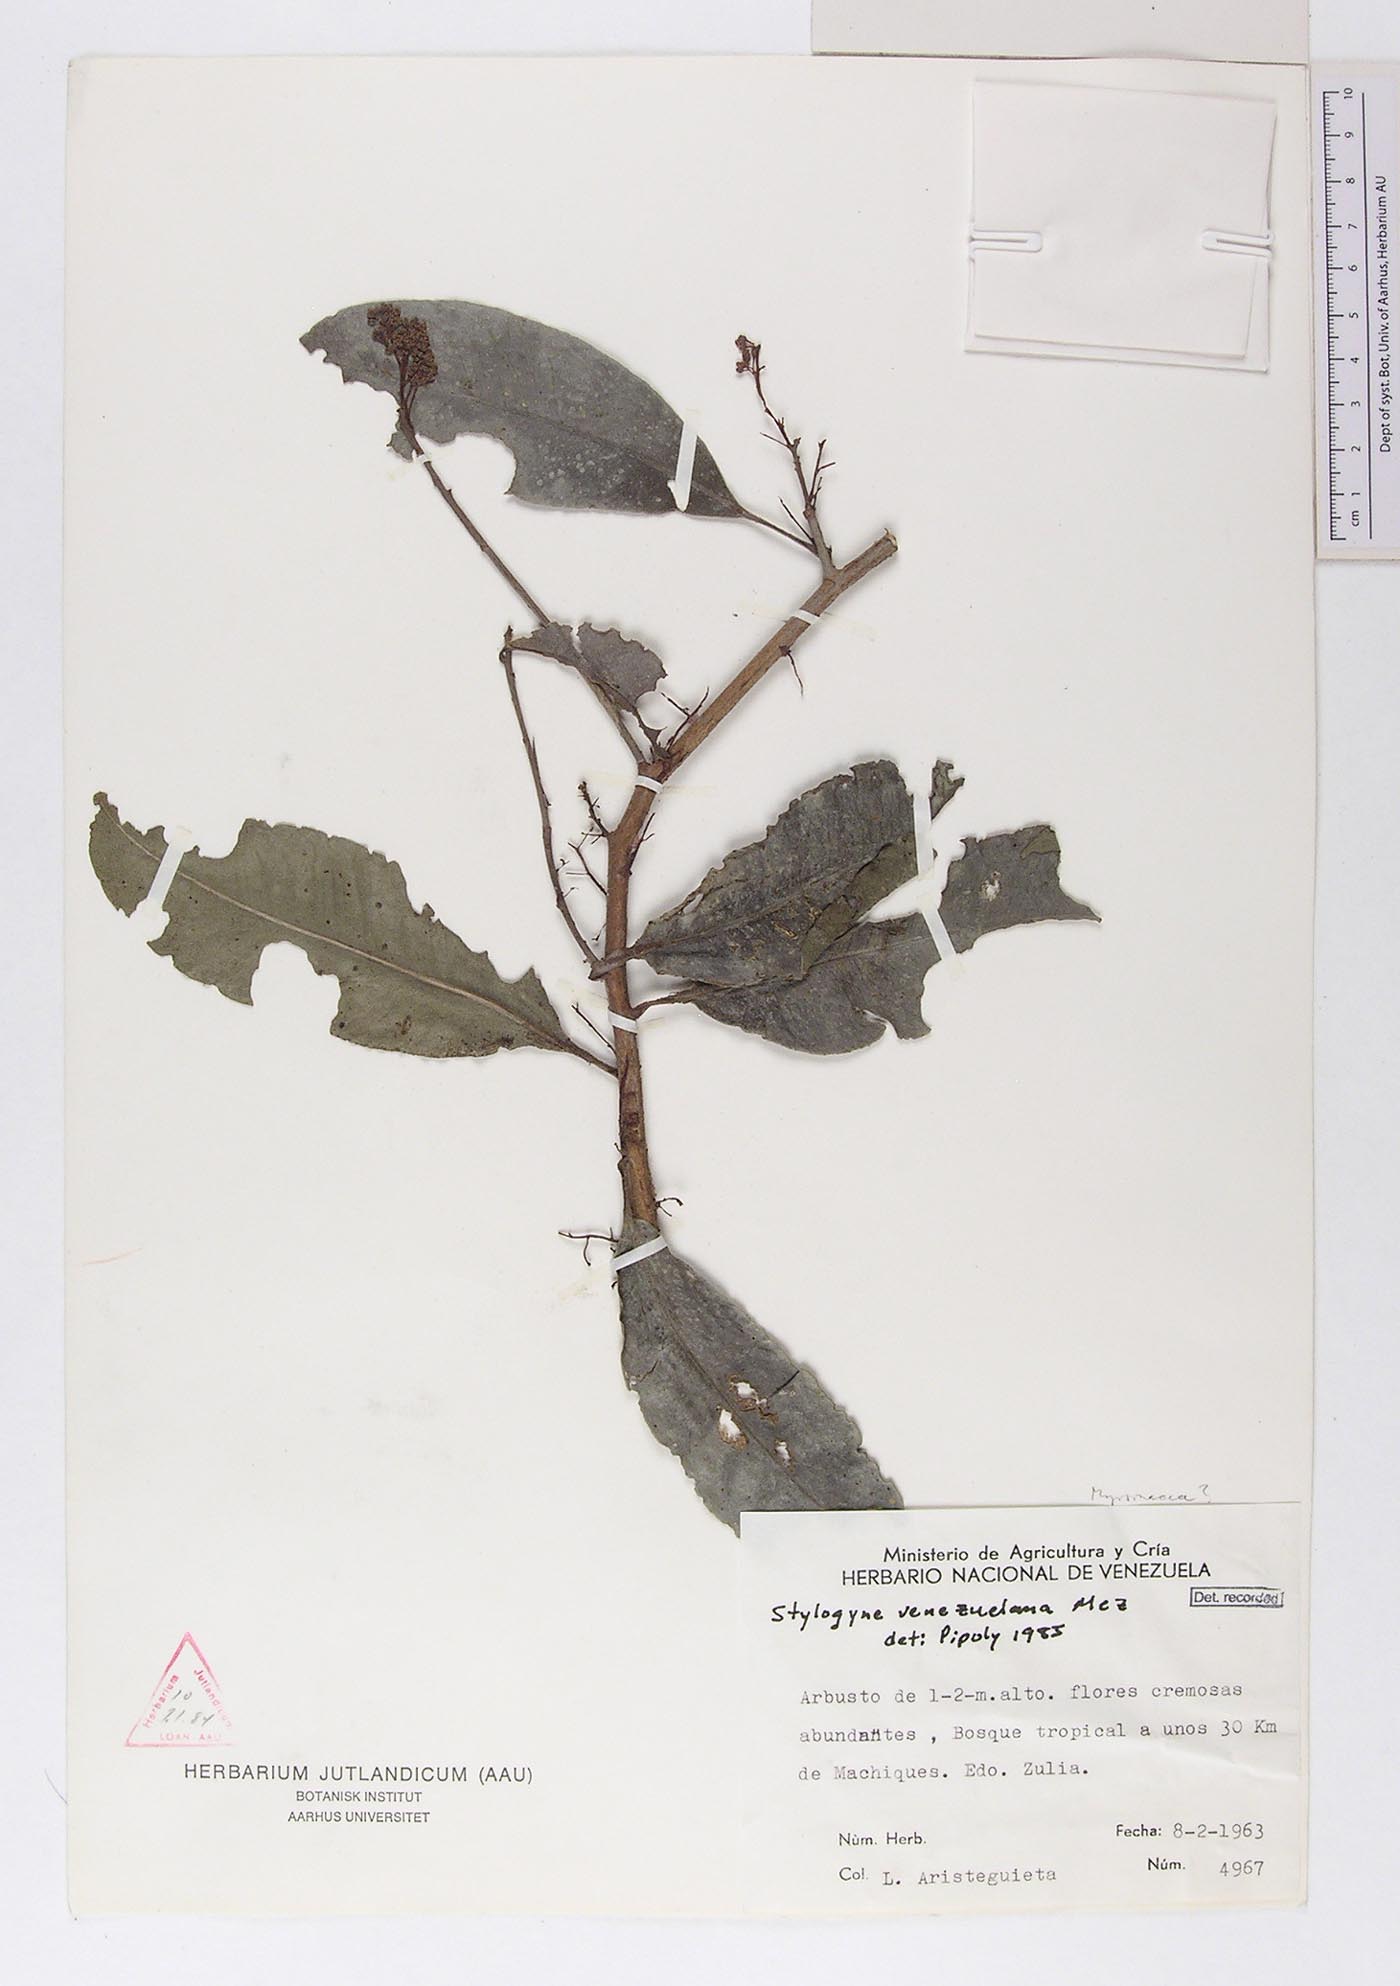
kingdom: Plantae
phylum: Tracheophyta
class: Magnoliopsida
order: Ericales
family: Primulaceae
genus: Stylogyne
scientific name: Stylogyne micrantha
